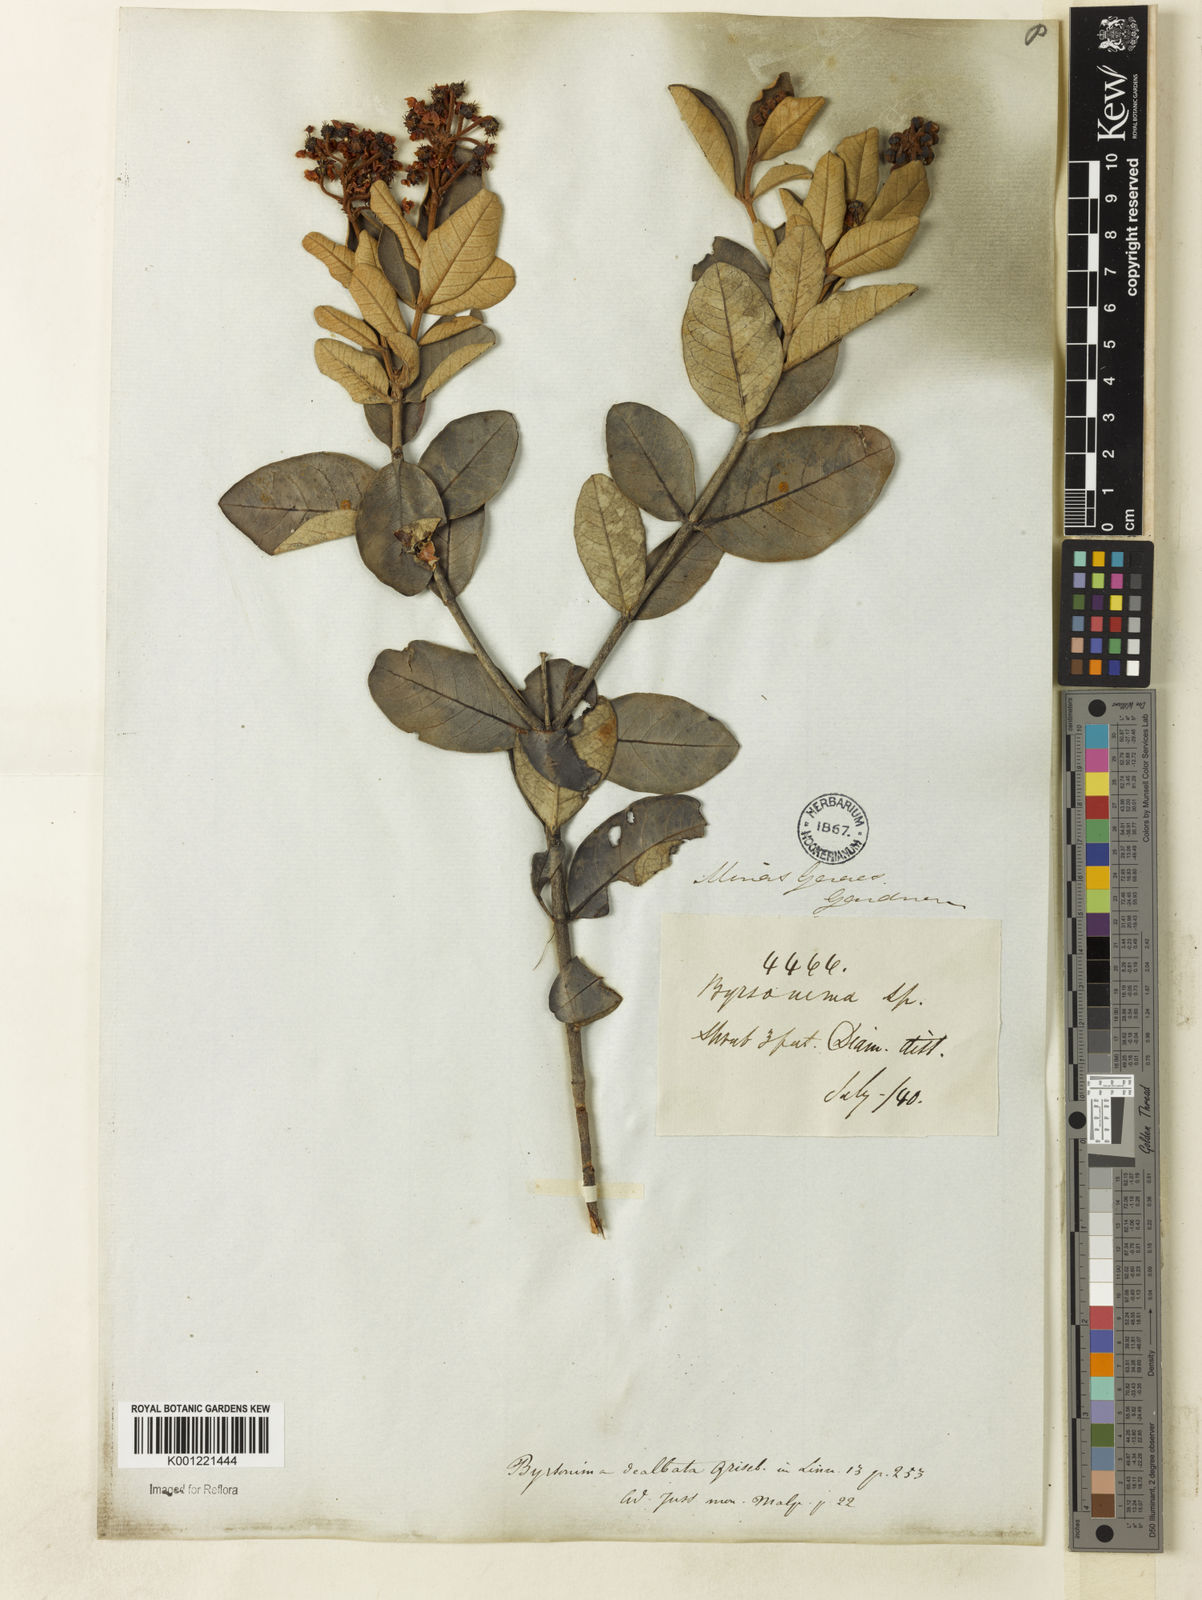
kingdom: Plantae
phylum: Tracheophyta
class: Magnoliopsida
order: Malpighiales
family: Malpighiaceae
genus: Byrsonima
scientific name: Byrsonima dealbata
